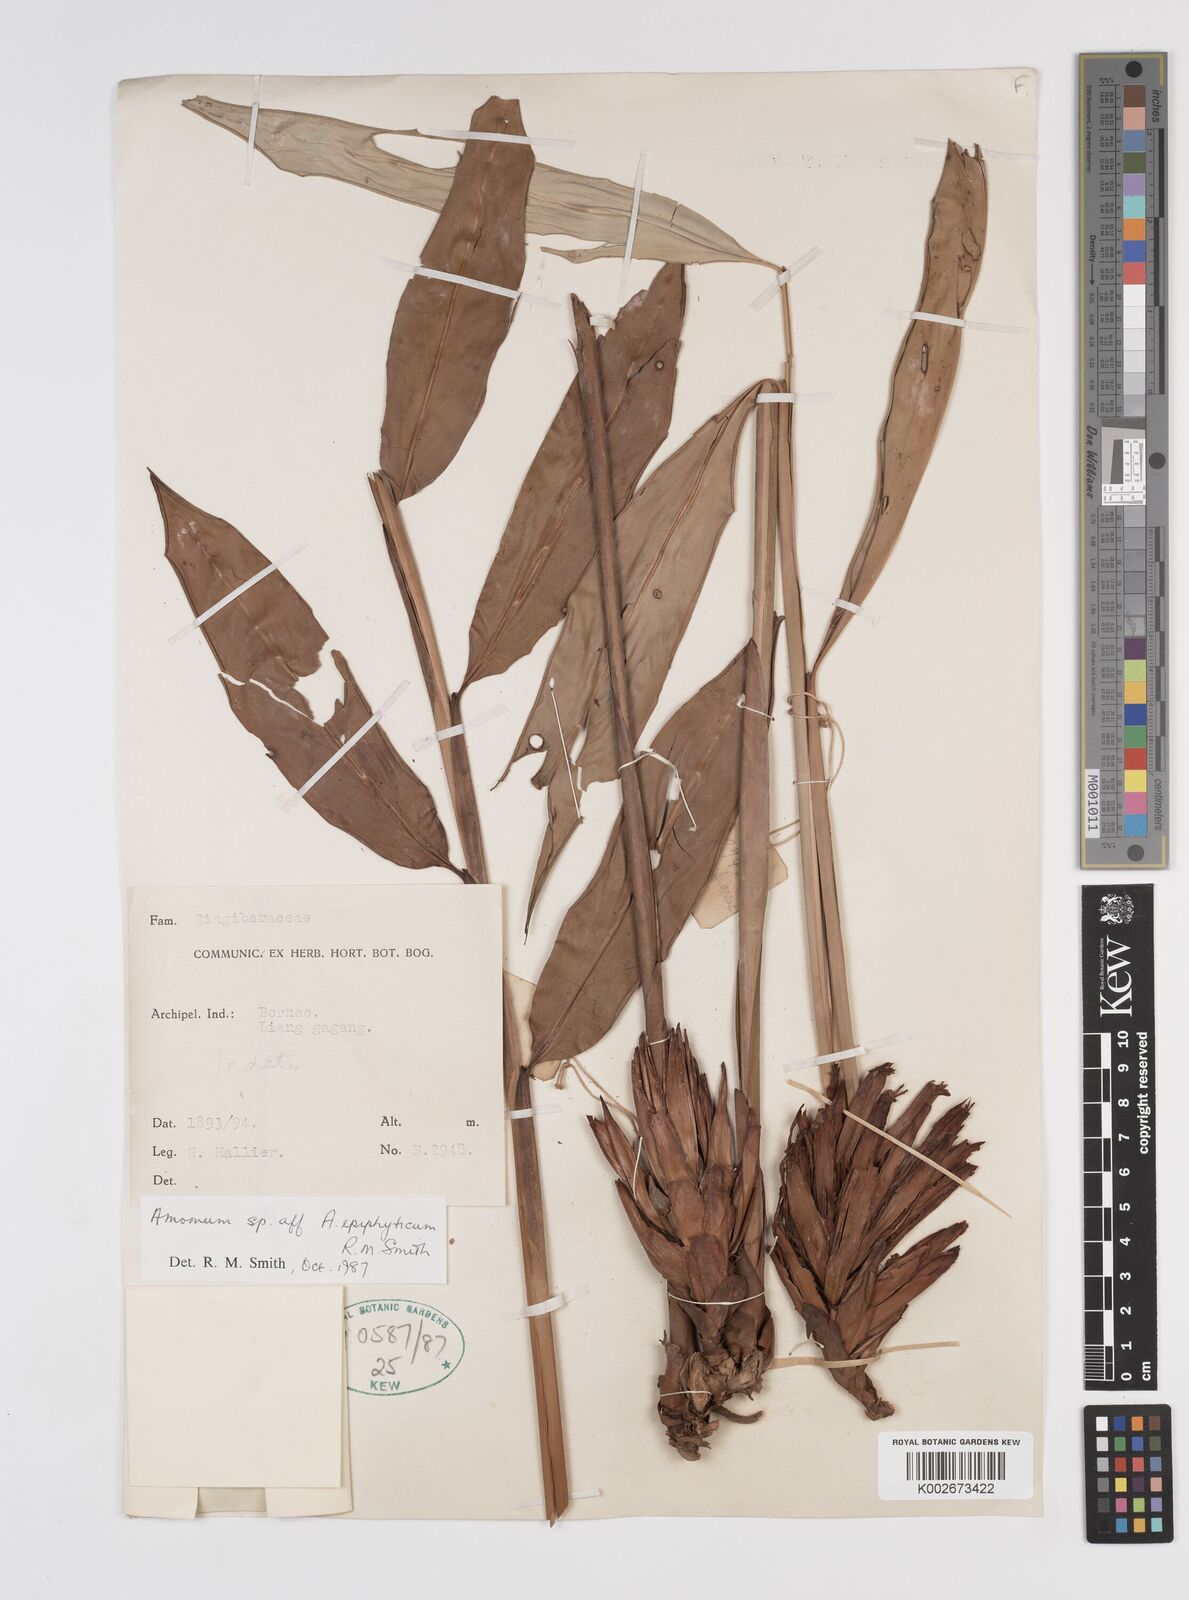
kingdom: Plantae
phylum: Tracheophyta
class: Liliopsida
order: Zingiberales
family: Zingiberaceae
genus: Epiamomum
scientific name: Epiamomum epiphyticum
